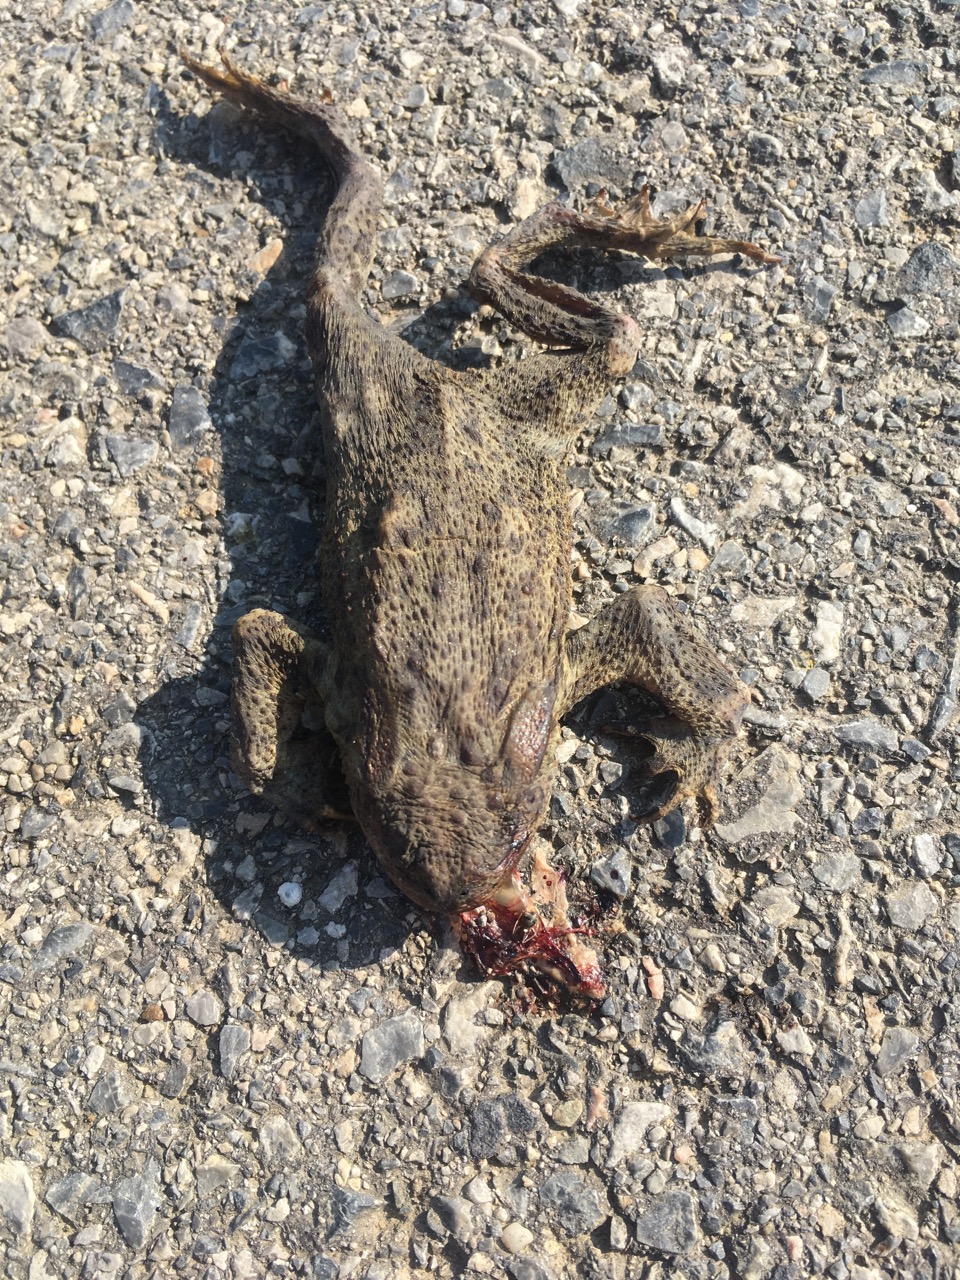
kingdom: Animalia
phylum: Chordata
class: Amphibia
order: Anura
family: Bufonidae
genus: Bufo
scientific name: Bufo bufo
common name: Common toad
